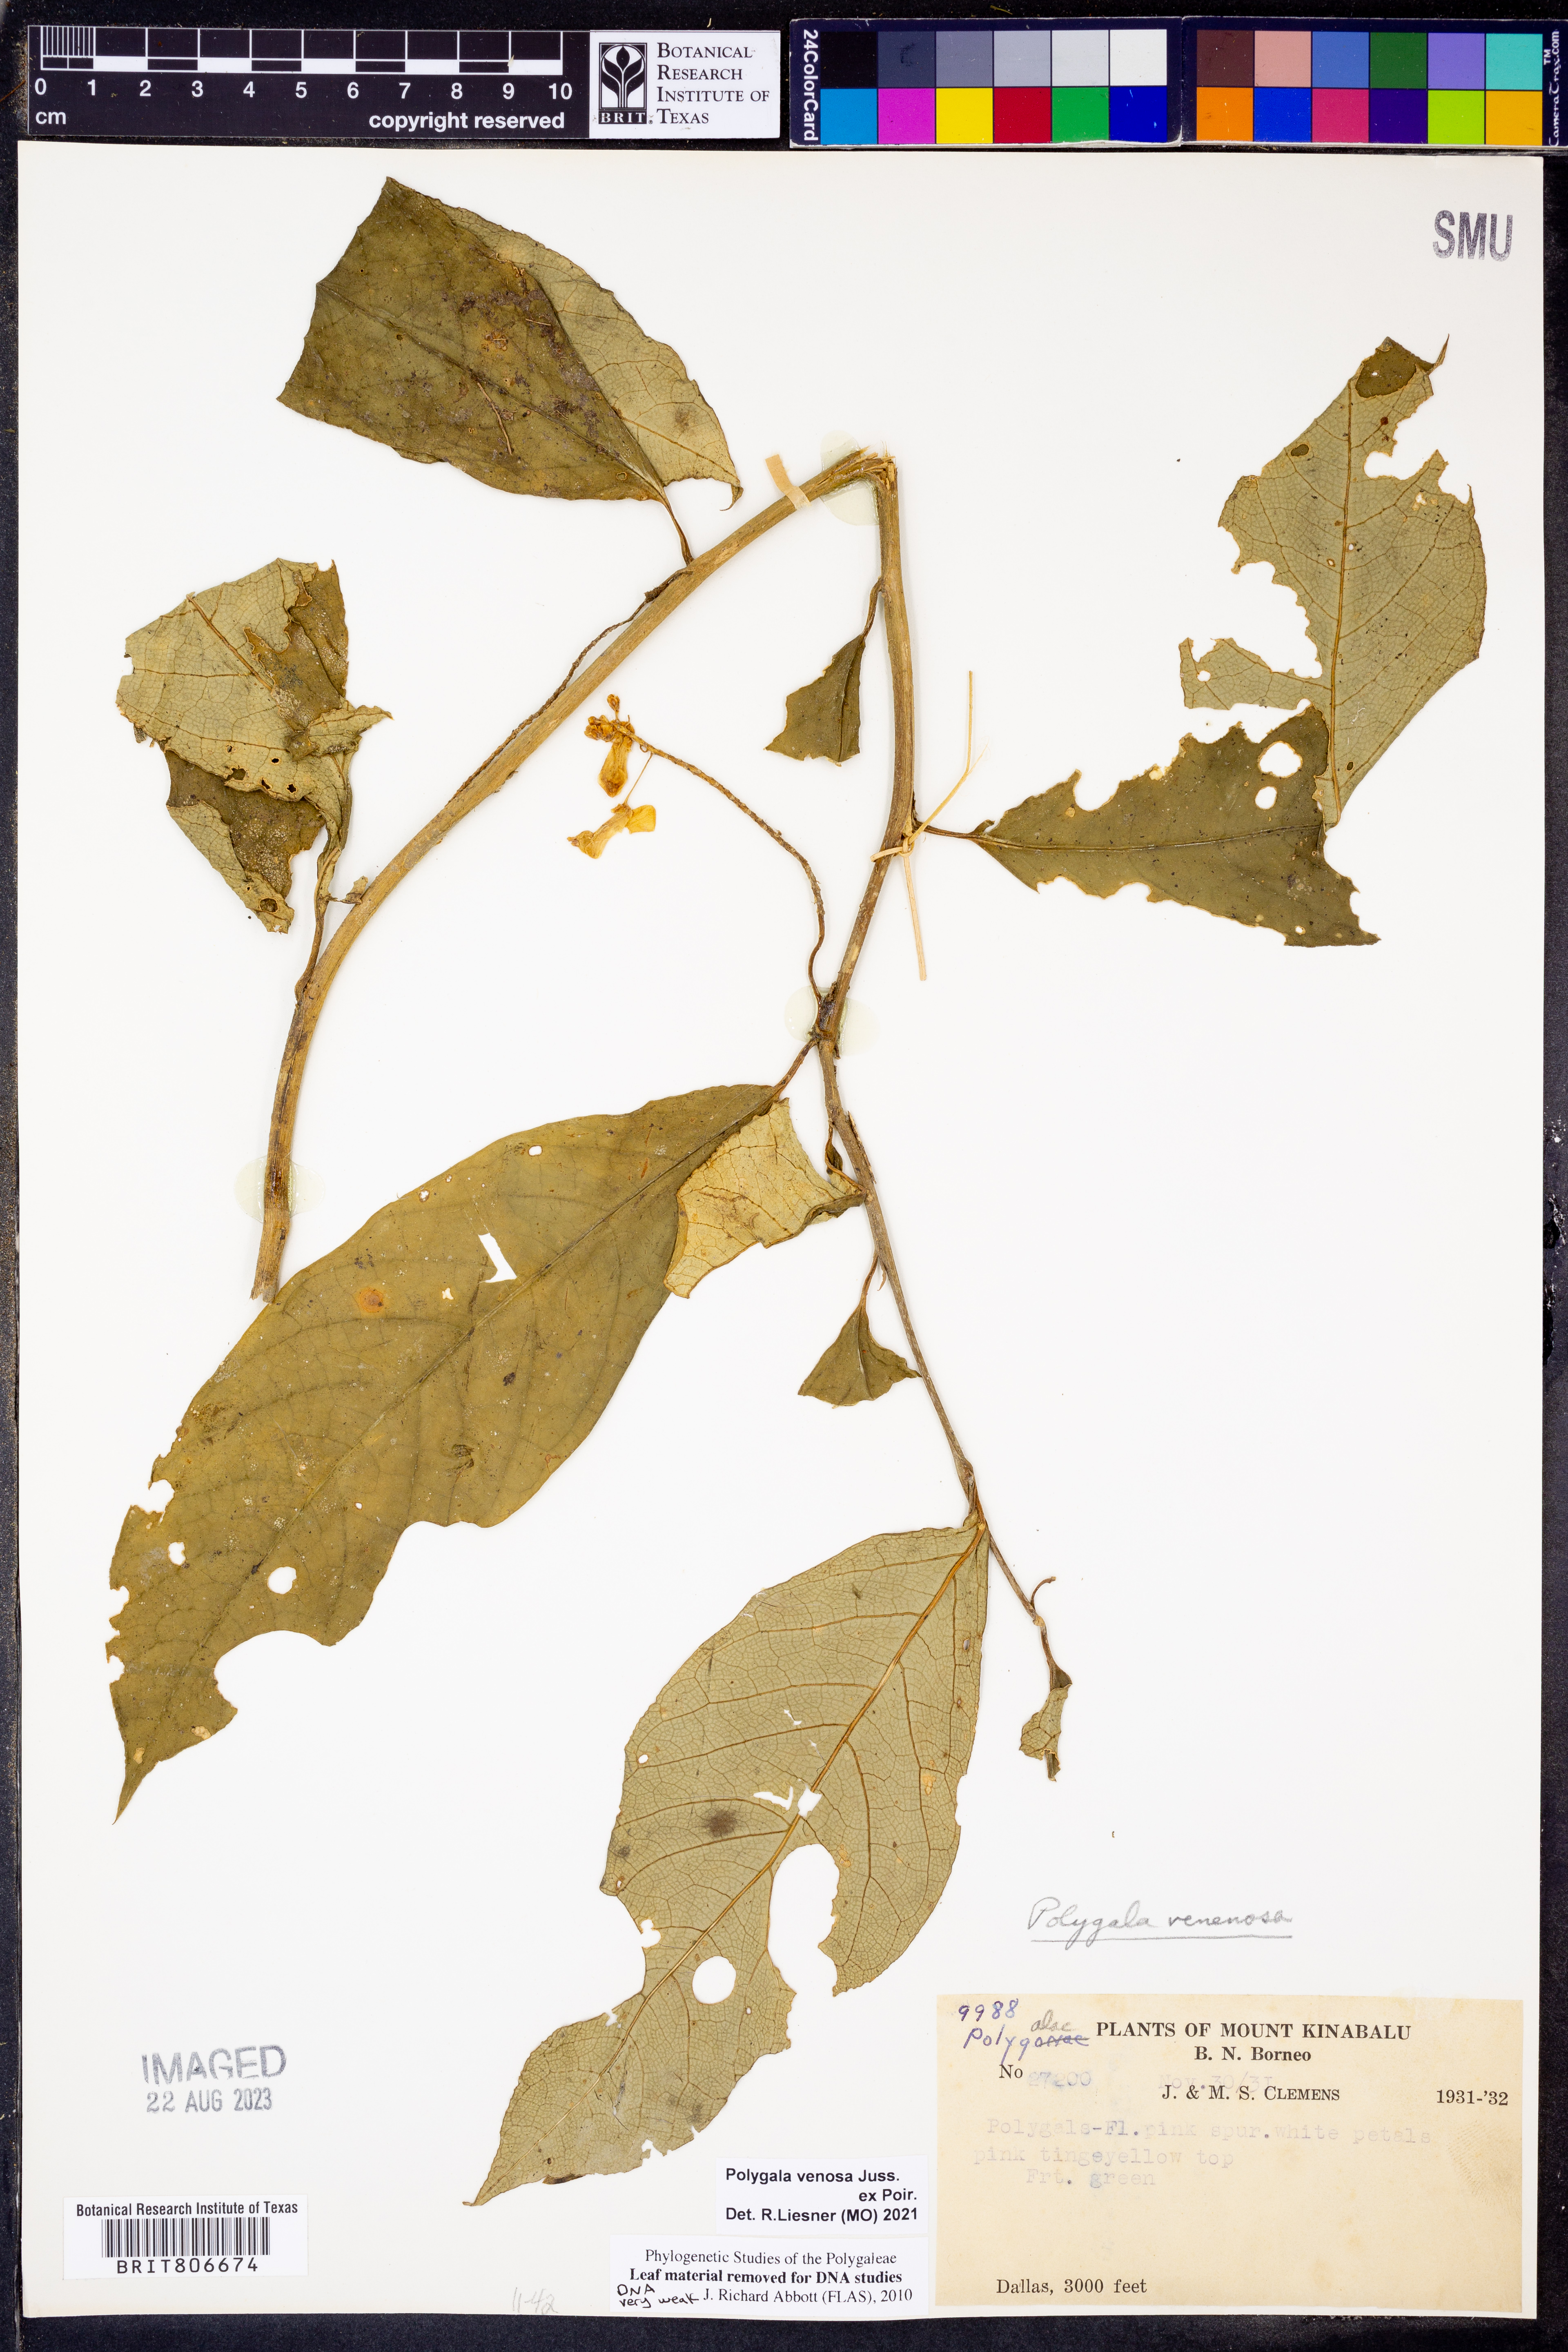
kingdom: Plantae
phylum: Tracheophyta
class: Magnoliopsida
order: Fabales
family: Polygalaceae
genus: Polygala
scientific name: Polygala venenosa
